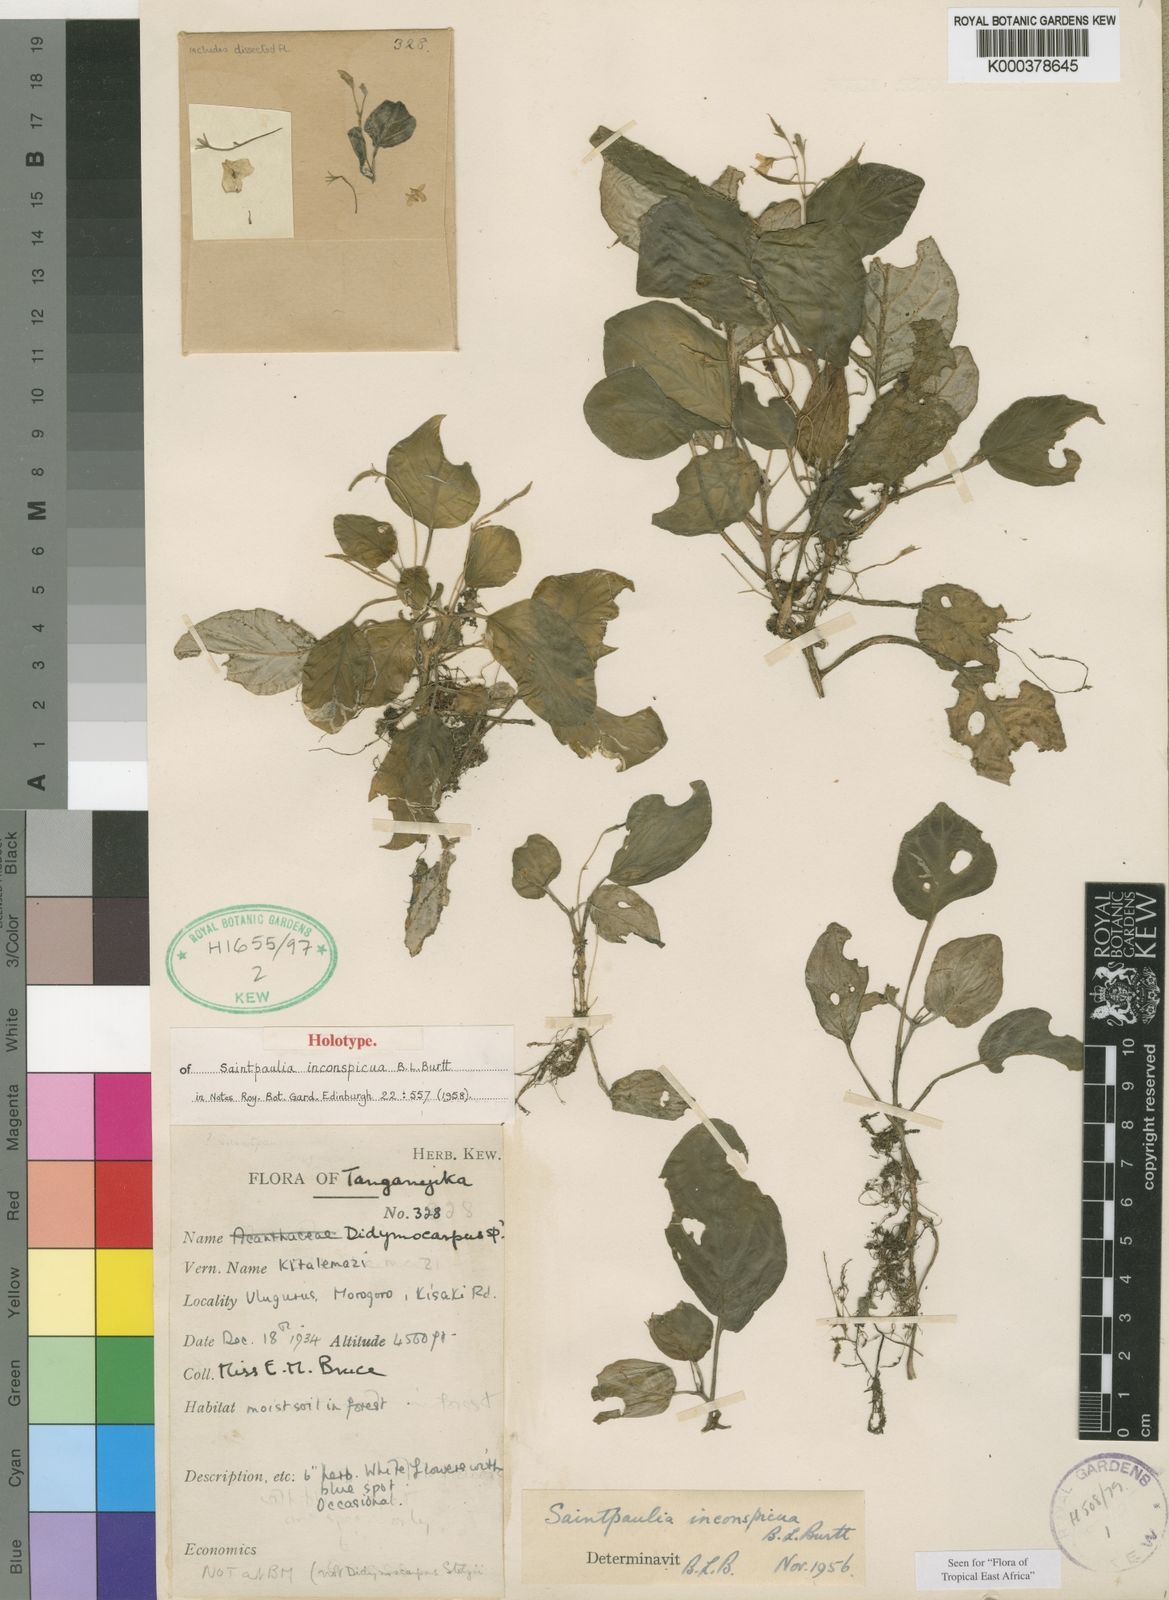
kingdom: Plantae
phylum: Tracheophyta
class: Magnoliopsida
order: Lamiales
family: Gesneriaceae
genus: Streptocarpus
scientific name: Streptocarpus inconspicuus
